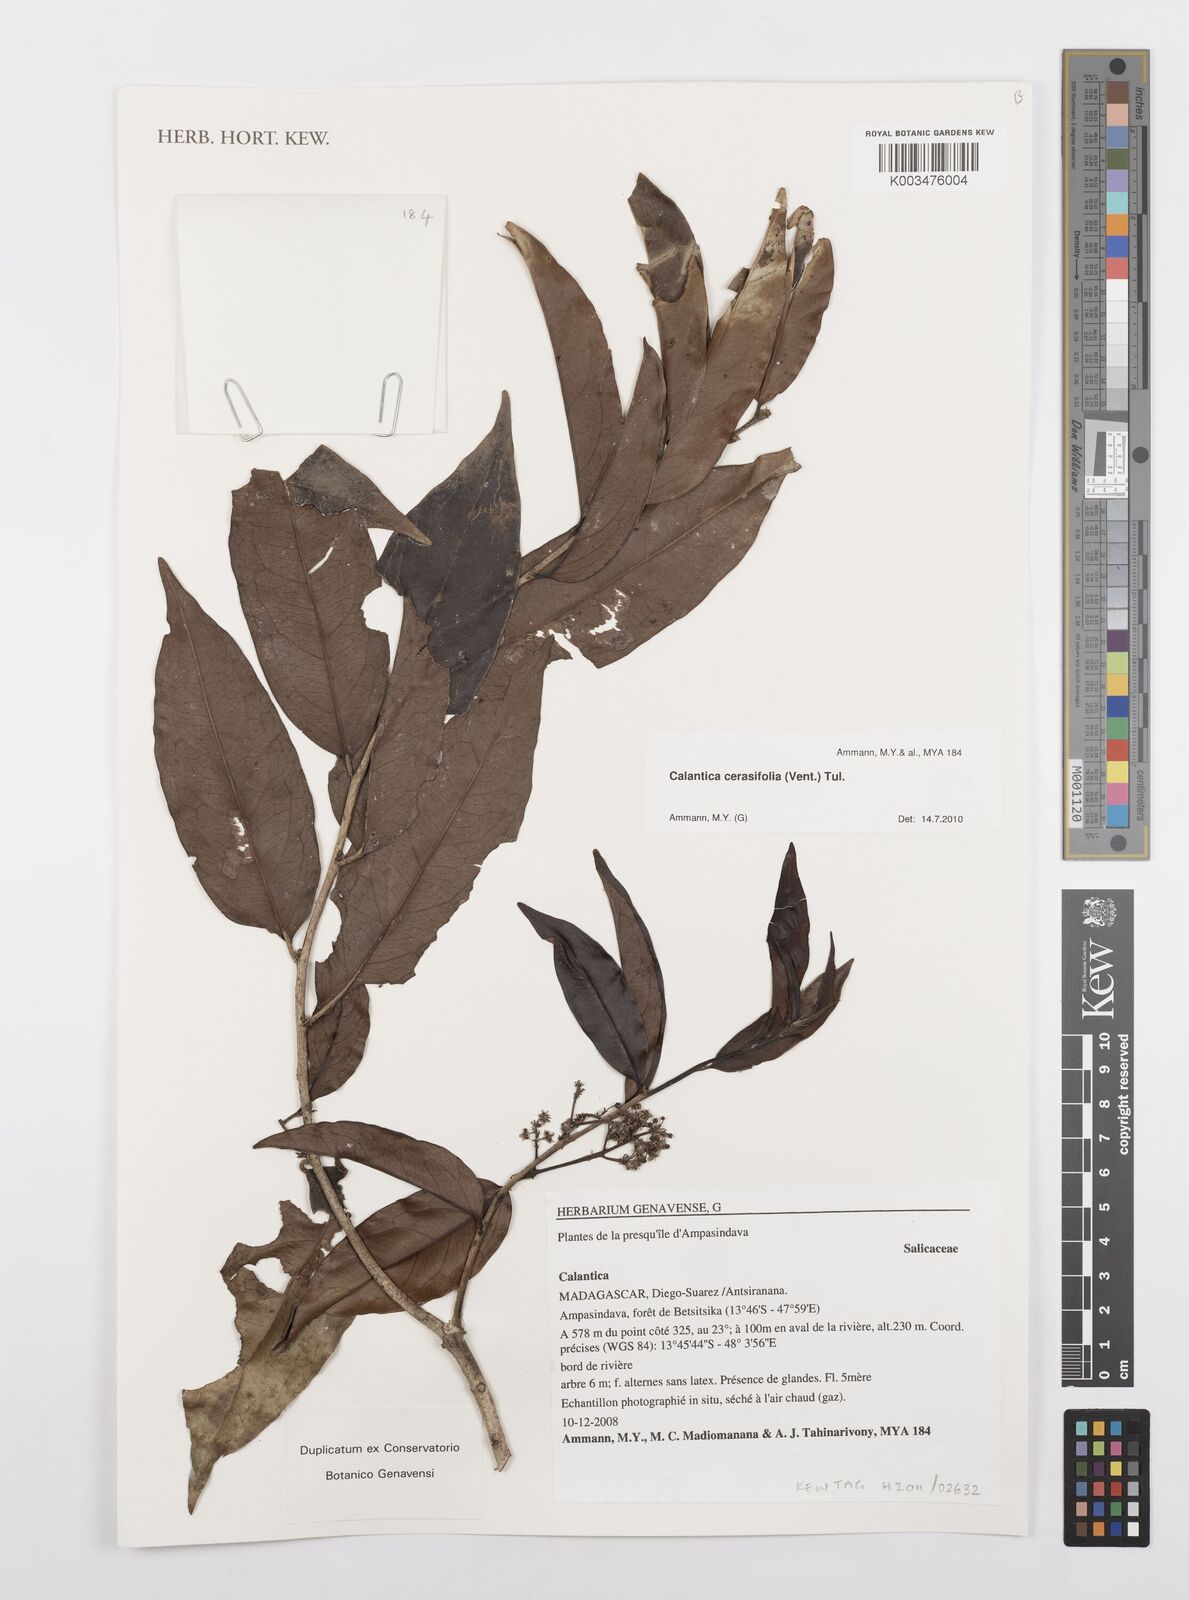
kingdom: Plantae
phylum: Tracheophyta
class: Magnoliopsida
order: Malpighiales
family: Salicaceae
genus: Calantica
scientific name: Calantica cerasifolia
